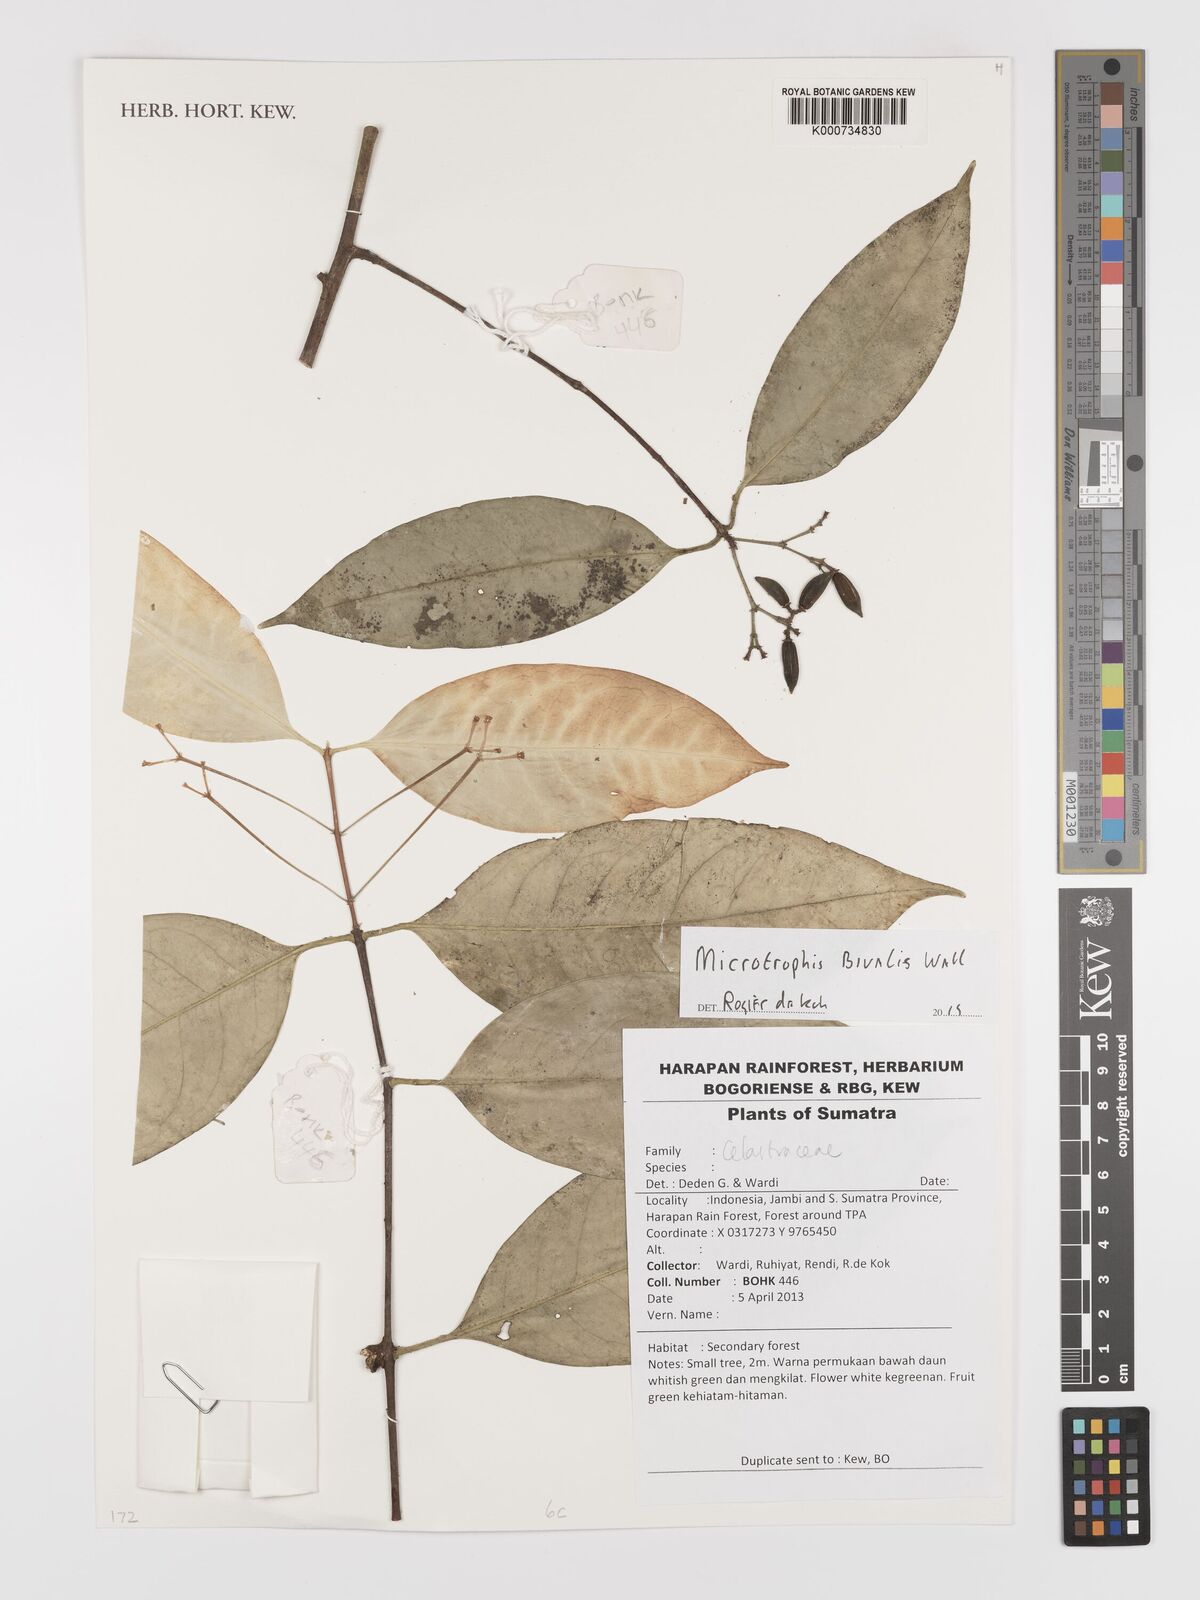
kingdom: Plantae
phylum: Tracheophyta
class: Magnoliopsida
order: Celastrales
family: Celastraceae
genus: Microtropis
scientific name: Microtropis bivalvis
